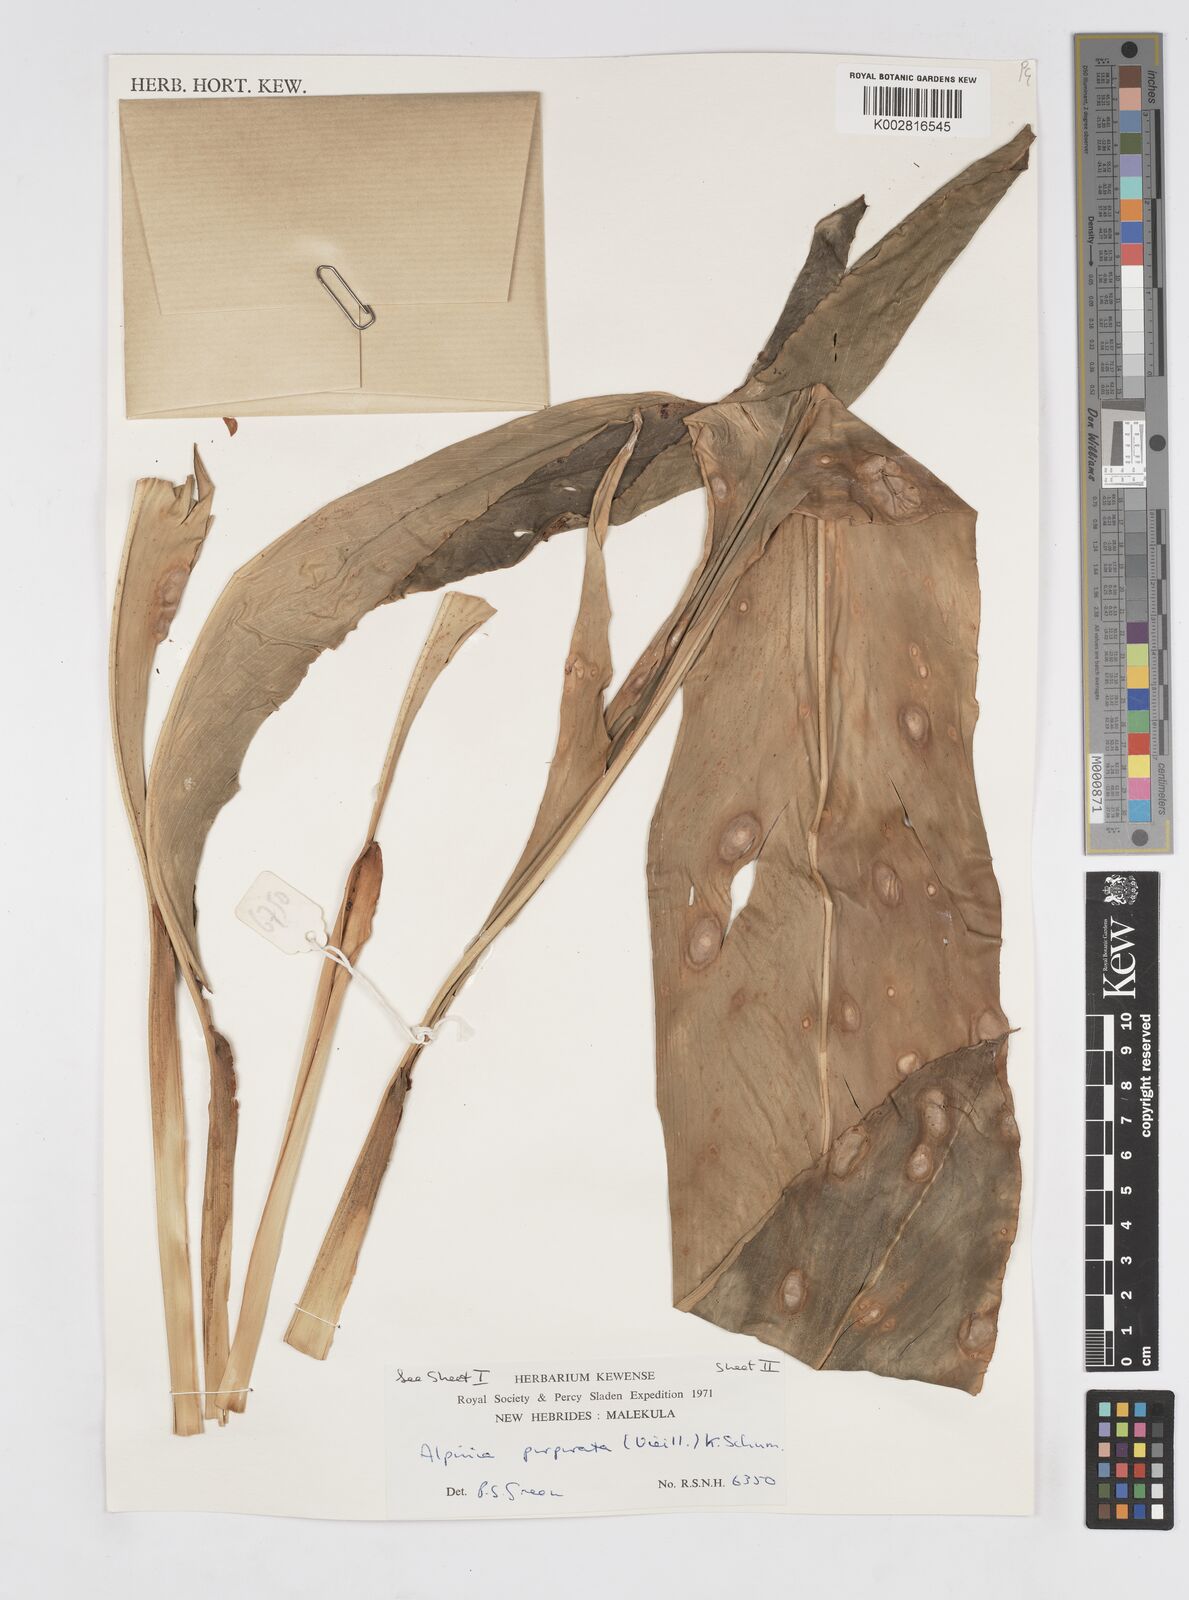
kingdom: Plantae
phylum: Tracheophyta
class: Liliopsida
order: Zingiberales
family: Zingiberaceae
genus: Alpinia
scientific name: Alpinia purpurata
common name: Red ginger
